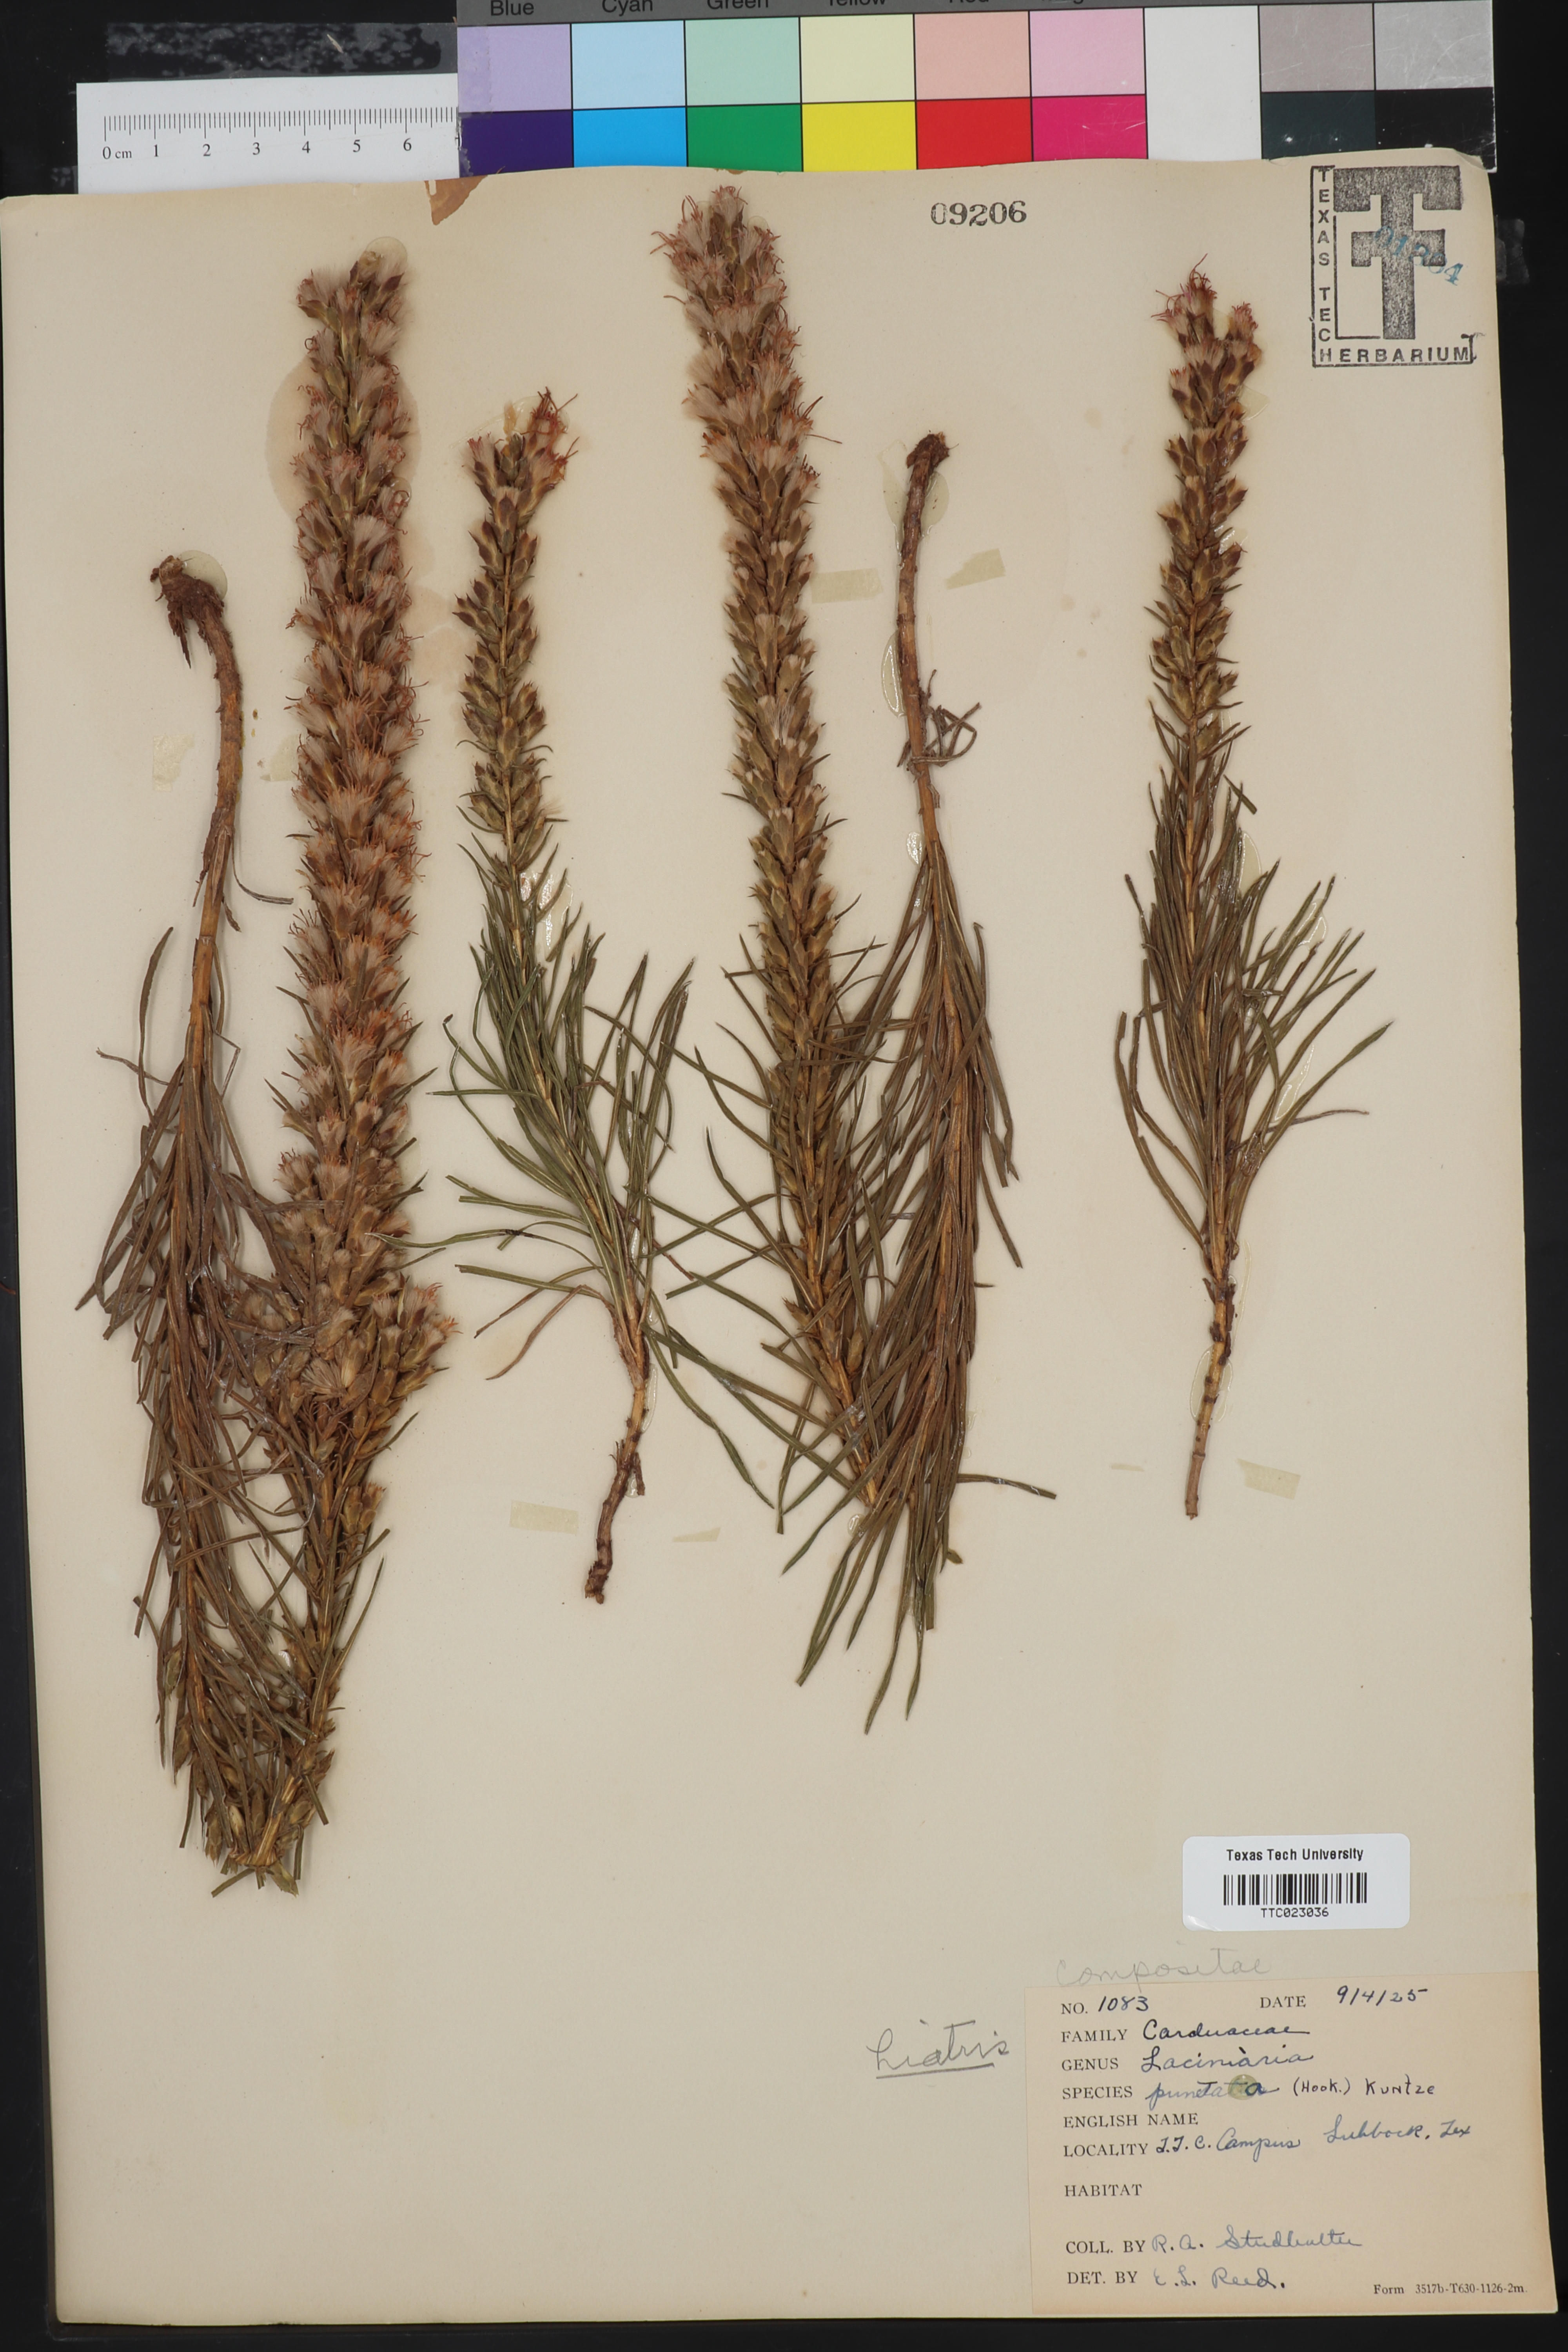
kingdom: Plantae
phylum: Tracheophyta
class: Magnoliopsida
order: Asterales
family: Asteraceae
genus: Liatris
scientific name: Liatris punctata
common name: Dotted gayfeather
